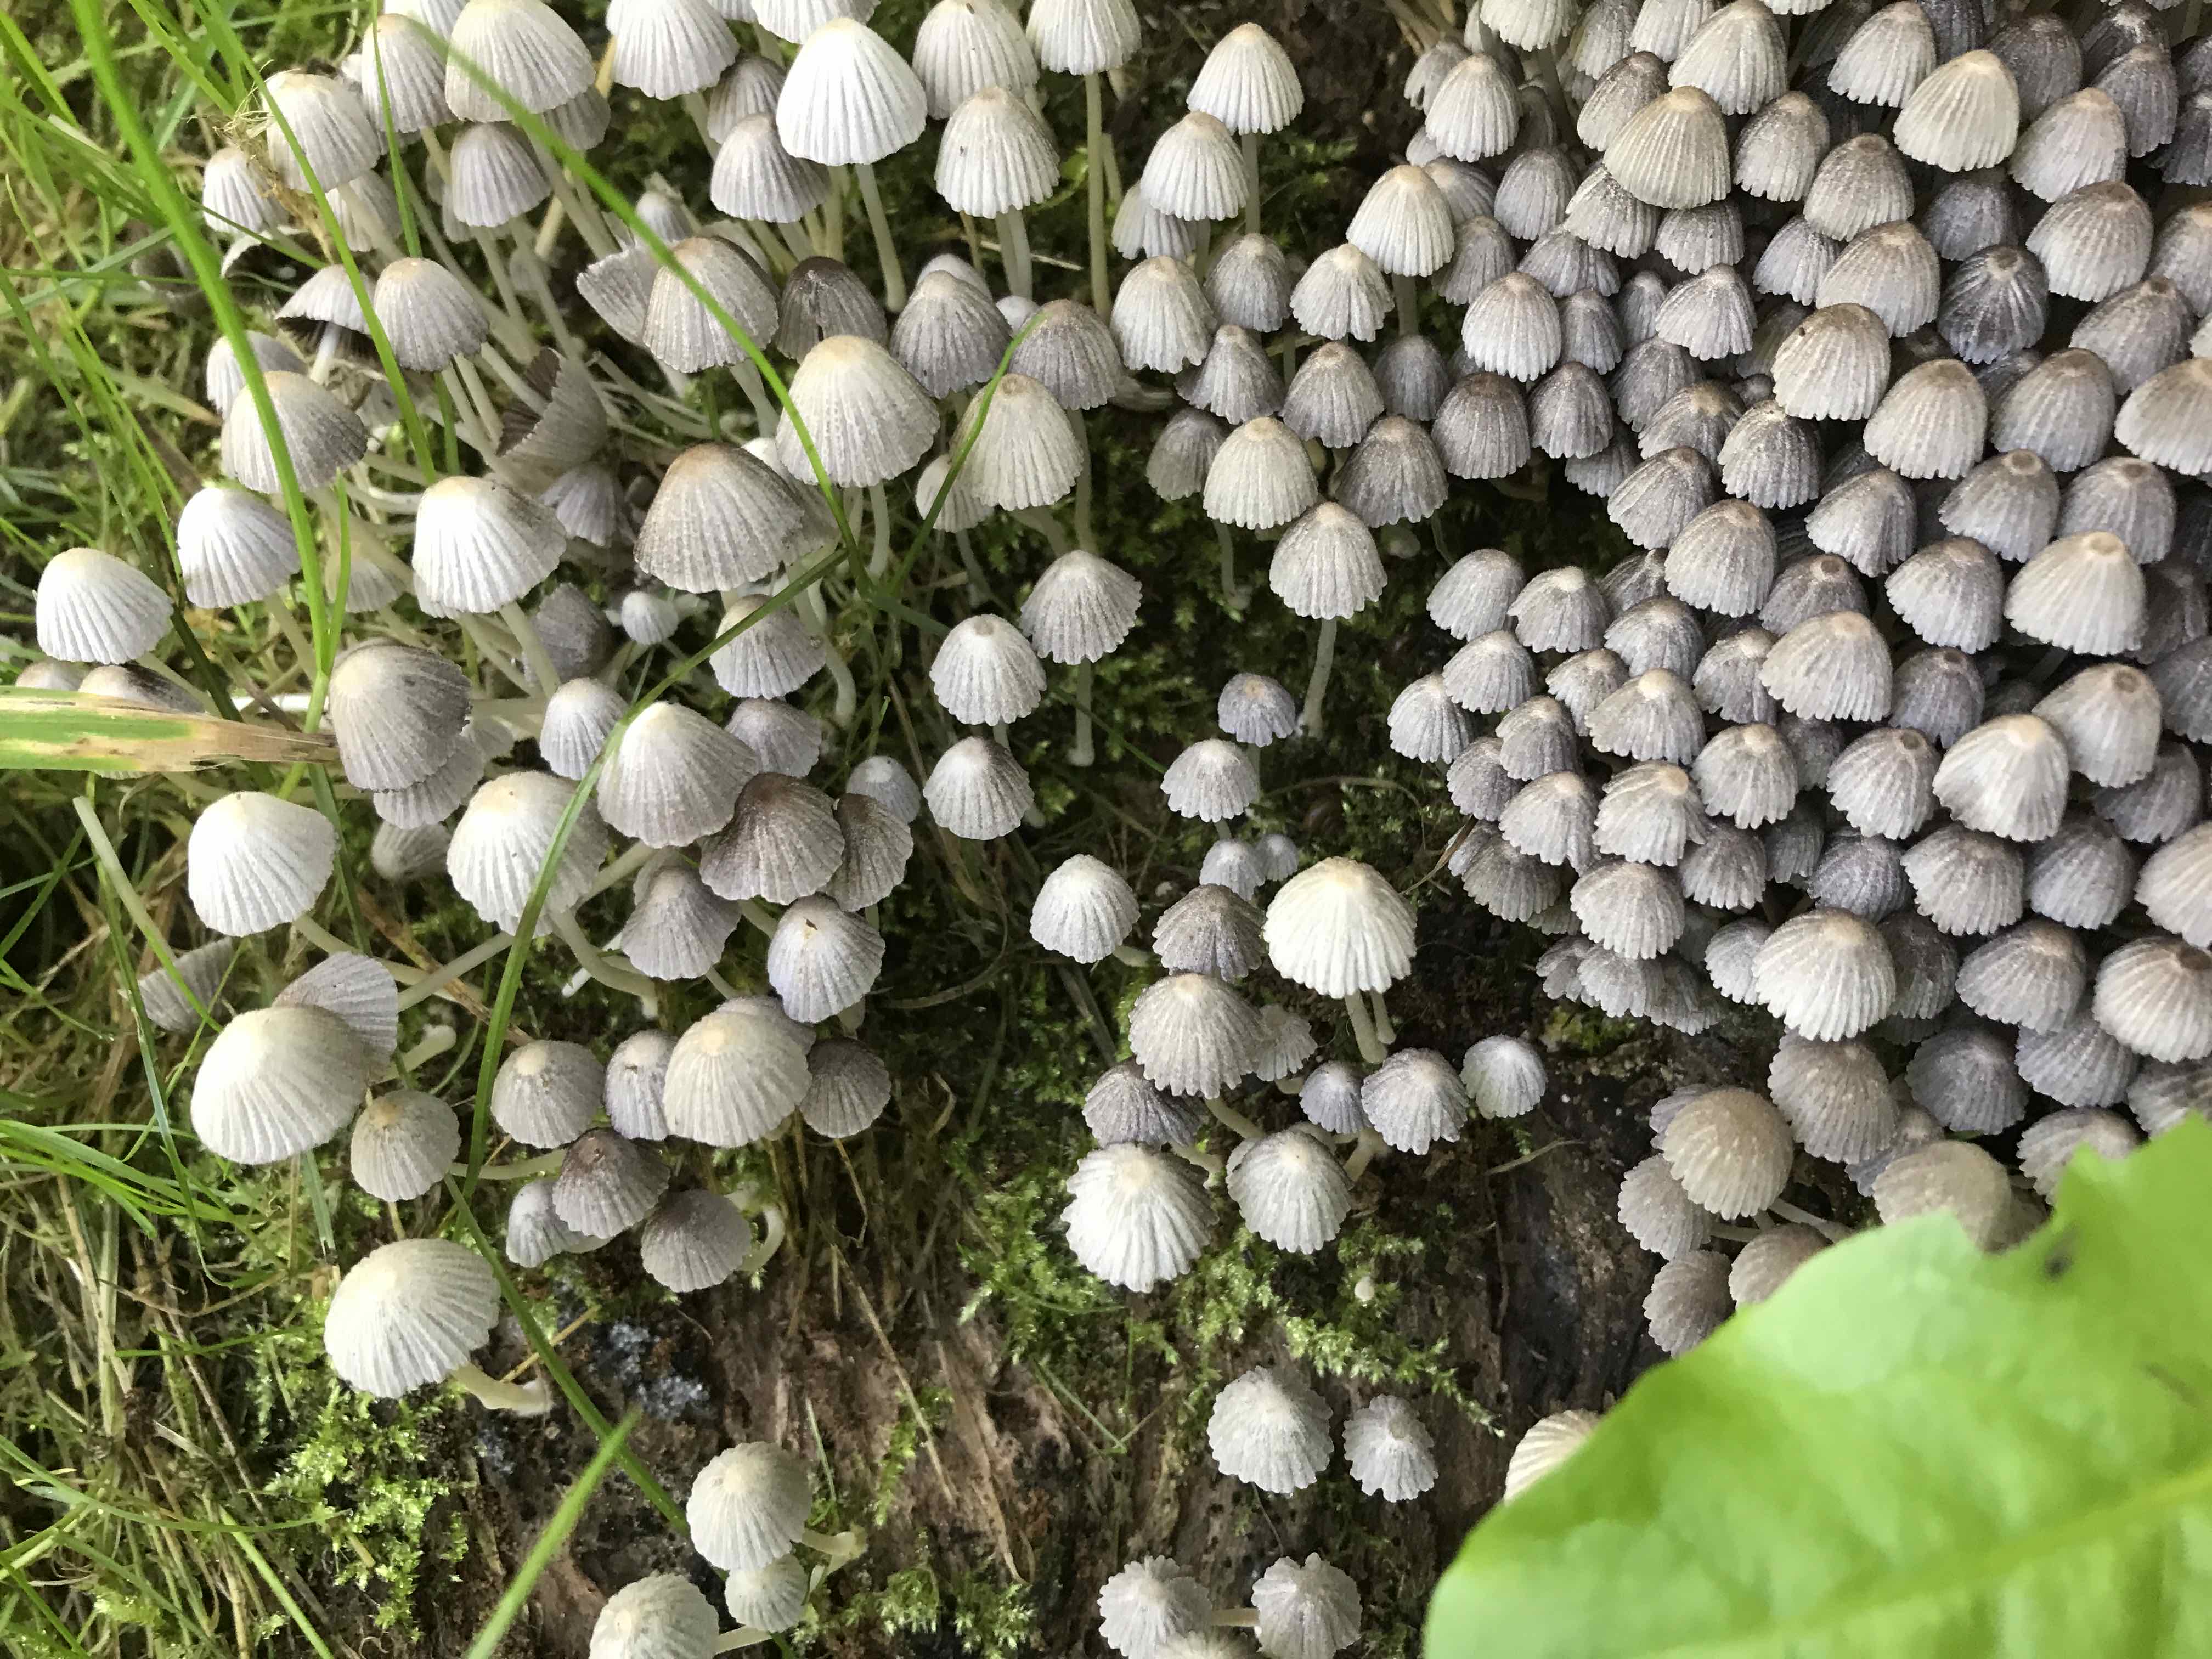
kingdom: Fungi
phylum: Basidiomycota
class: Agaricomycetes
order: Agaricales
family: Psathyrellaceae
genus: Coprinellus
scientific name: Coprinellus disseminatus
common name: bredsået blækhat
